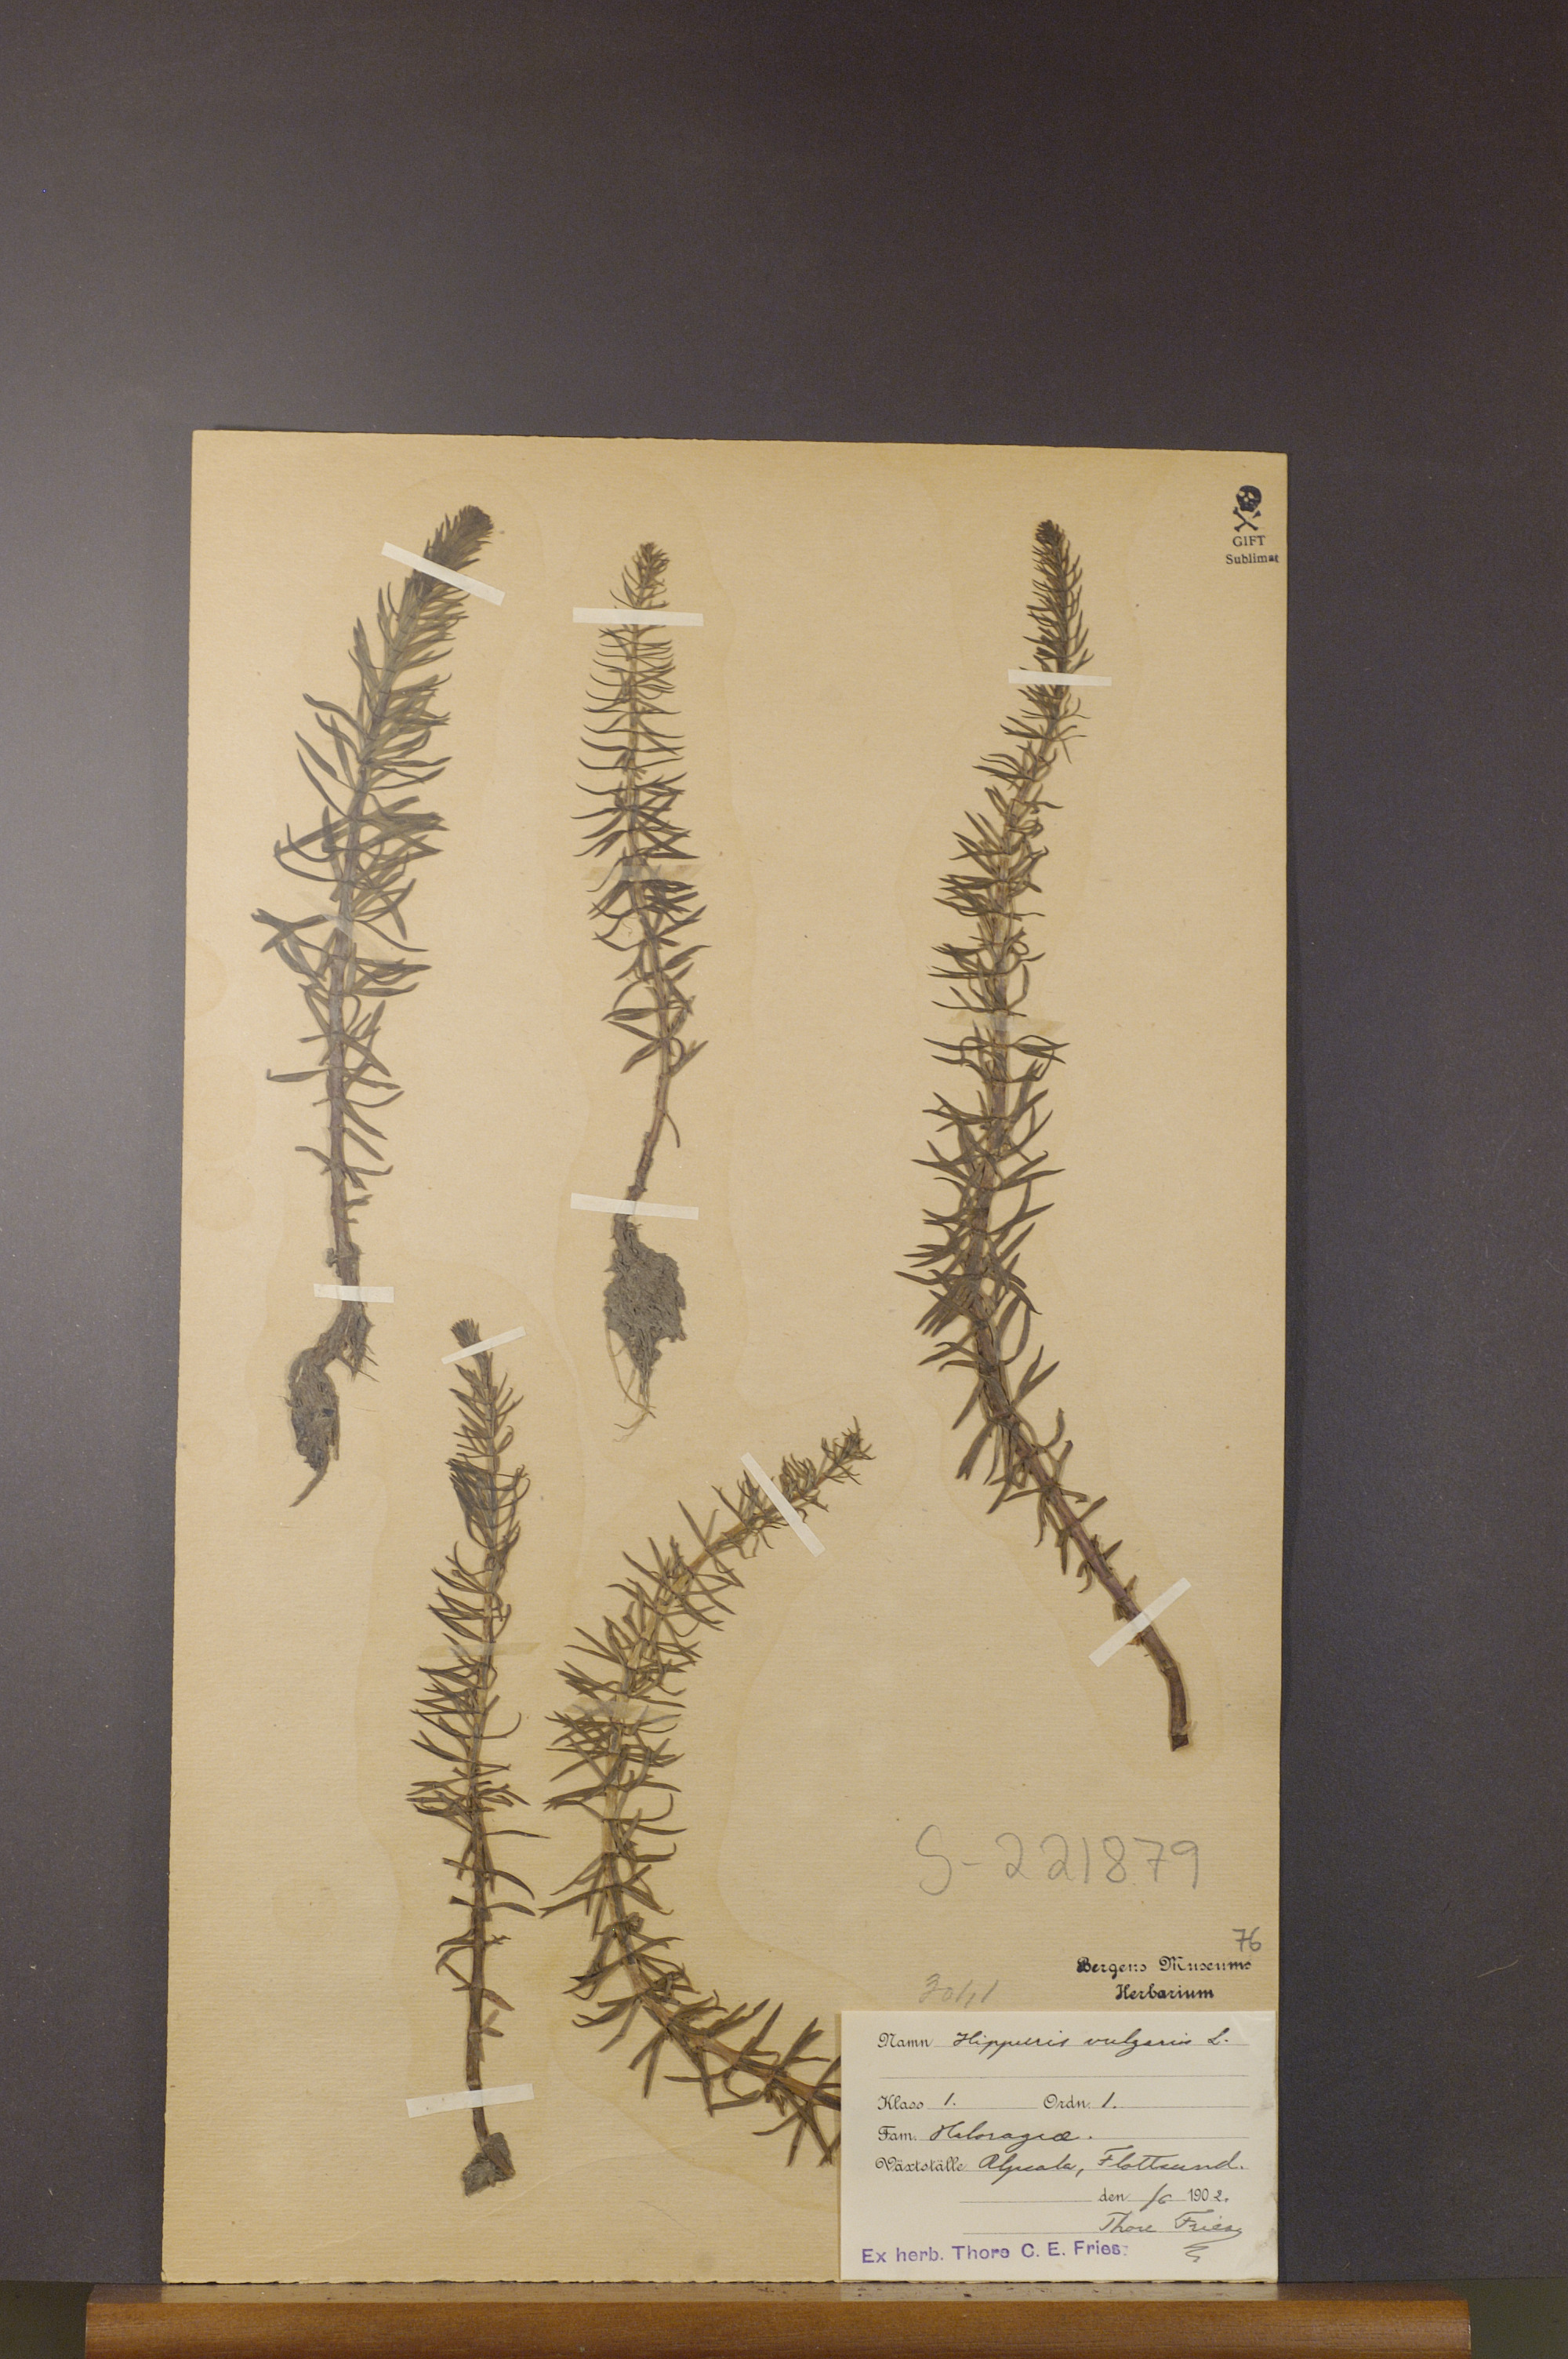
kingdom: Plantae
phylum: Tracheophyta
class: Magnoliopsida
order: Lamiales
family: Plantaginaceae
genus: Hippuris
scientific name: Hippuris vulgaris
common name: Mare's-tail
